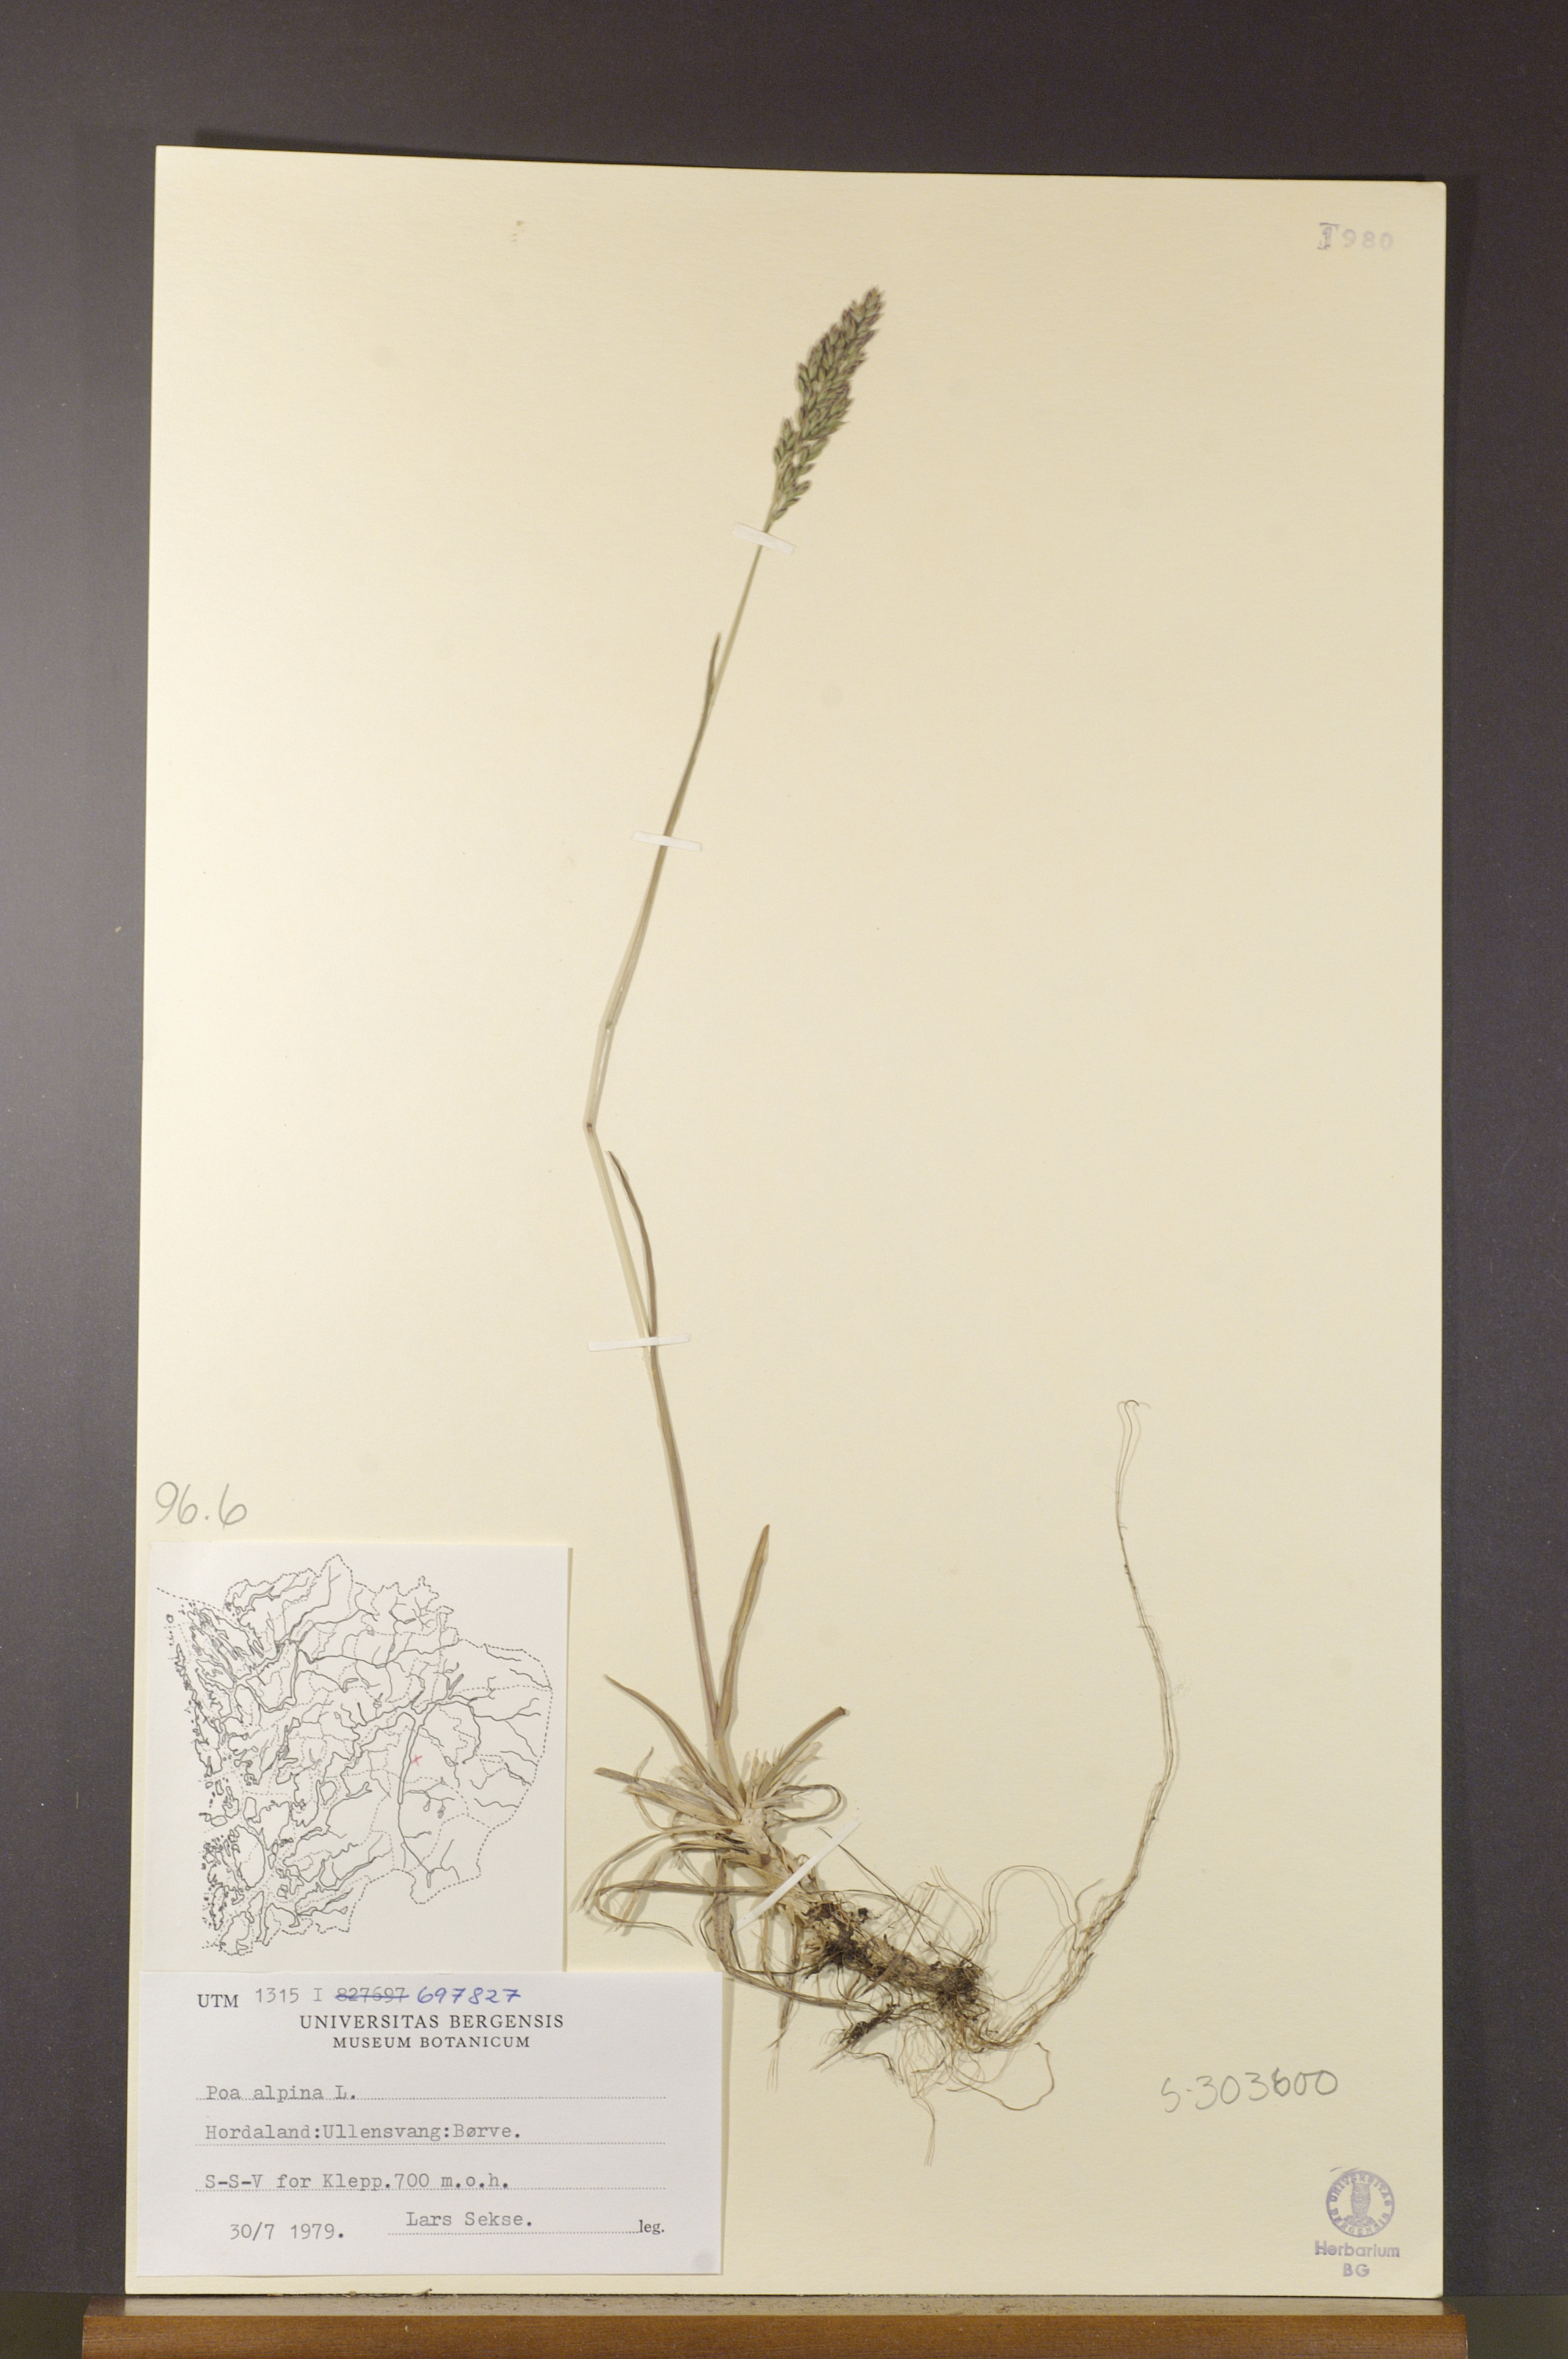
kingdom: Plantae
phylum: Tracheophyta
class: Liliopsida
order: Poales
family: Poaceae
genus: Poa
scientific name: Poa alpina
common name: Alpine bluegrass
